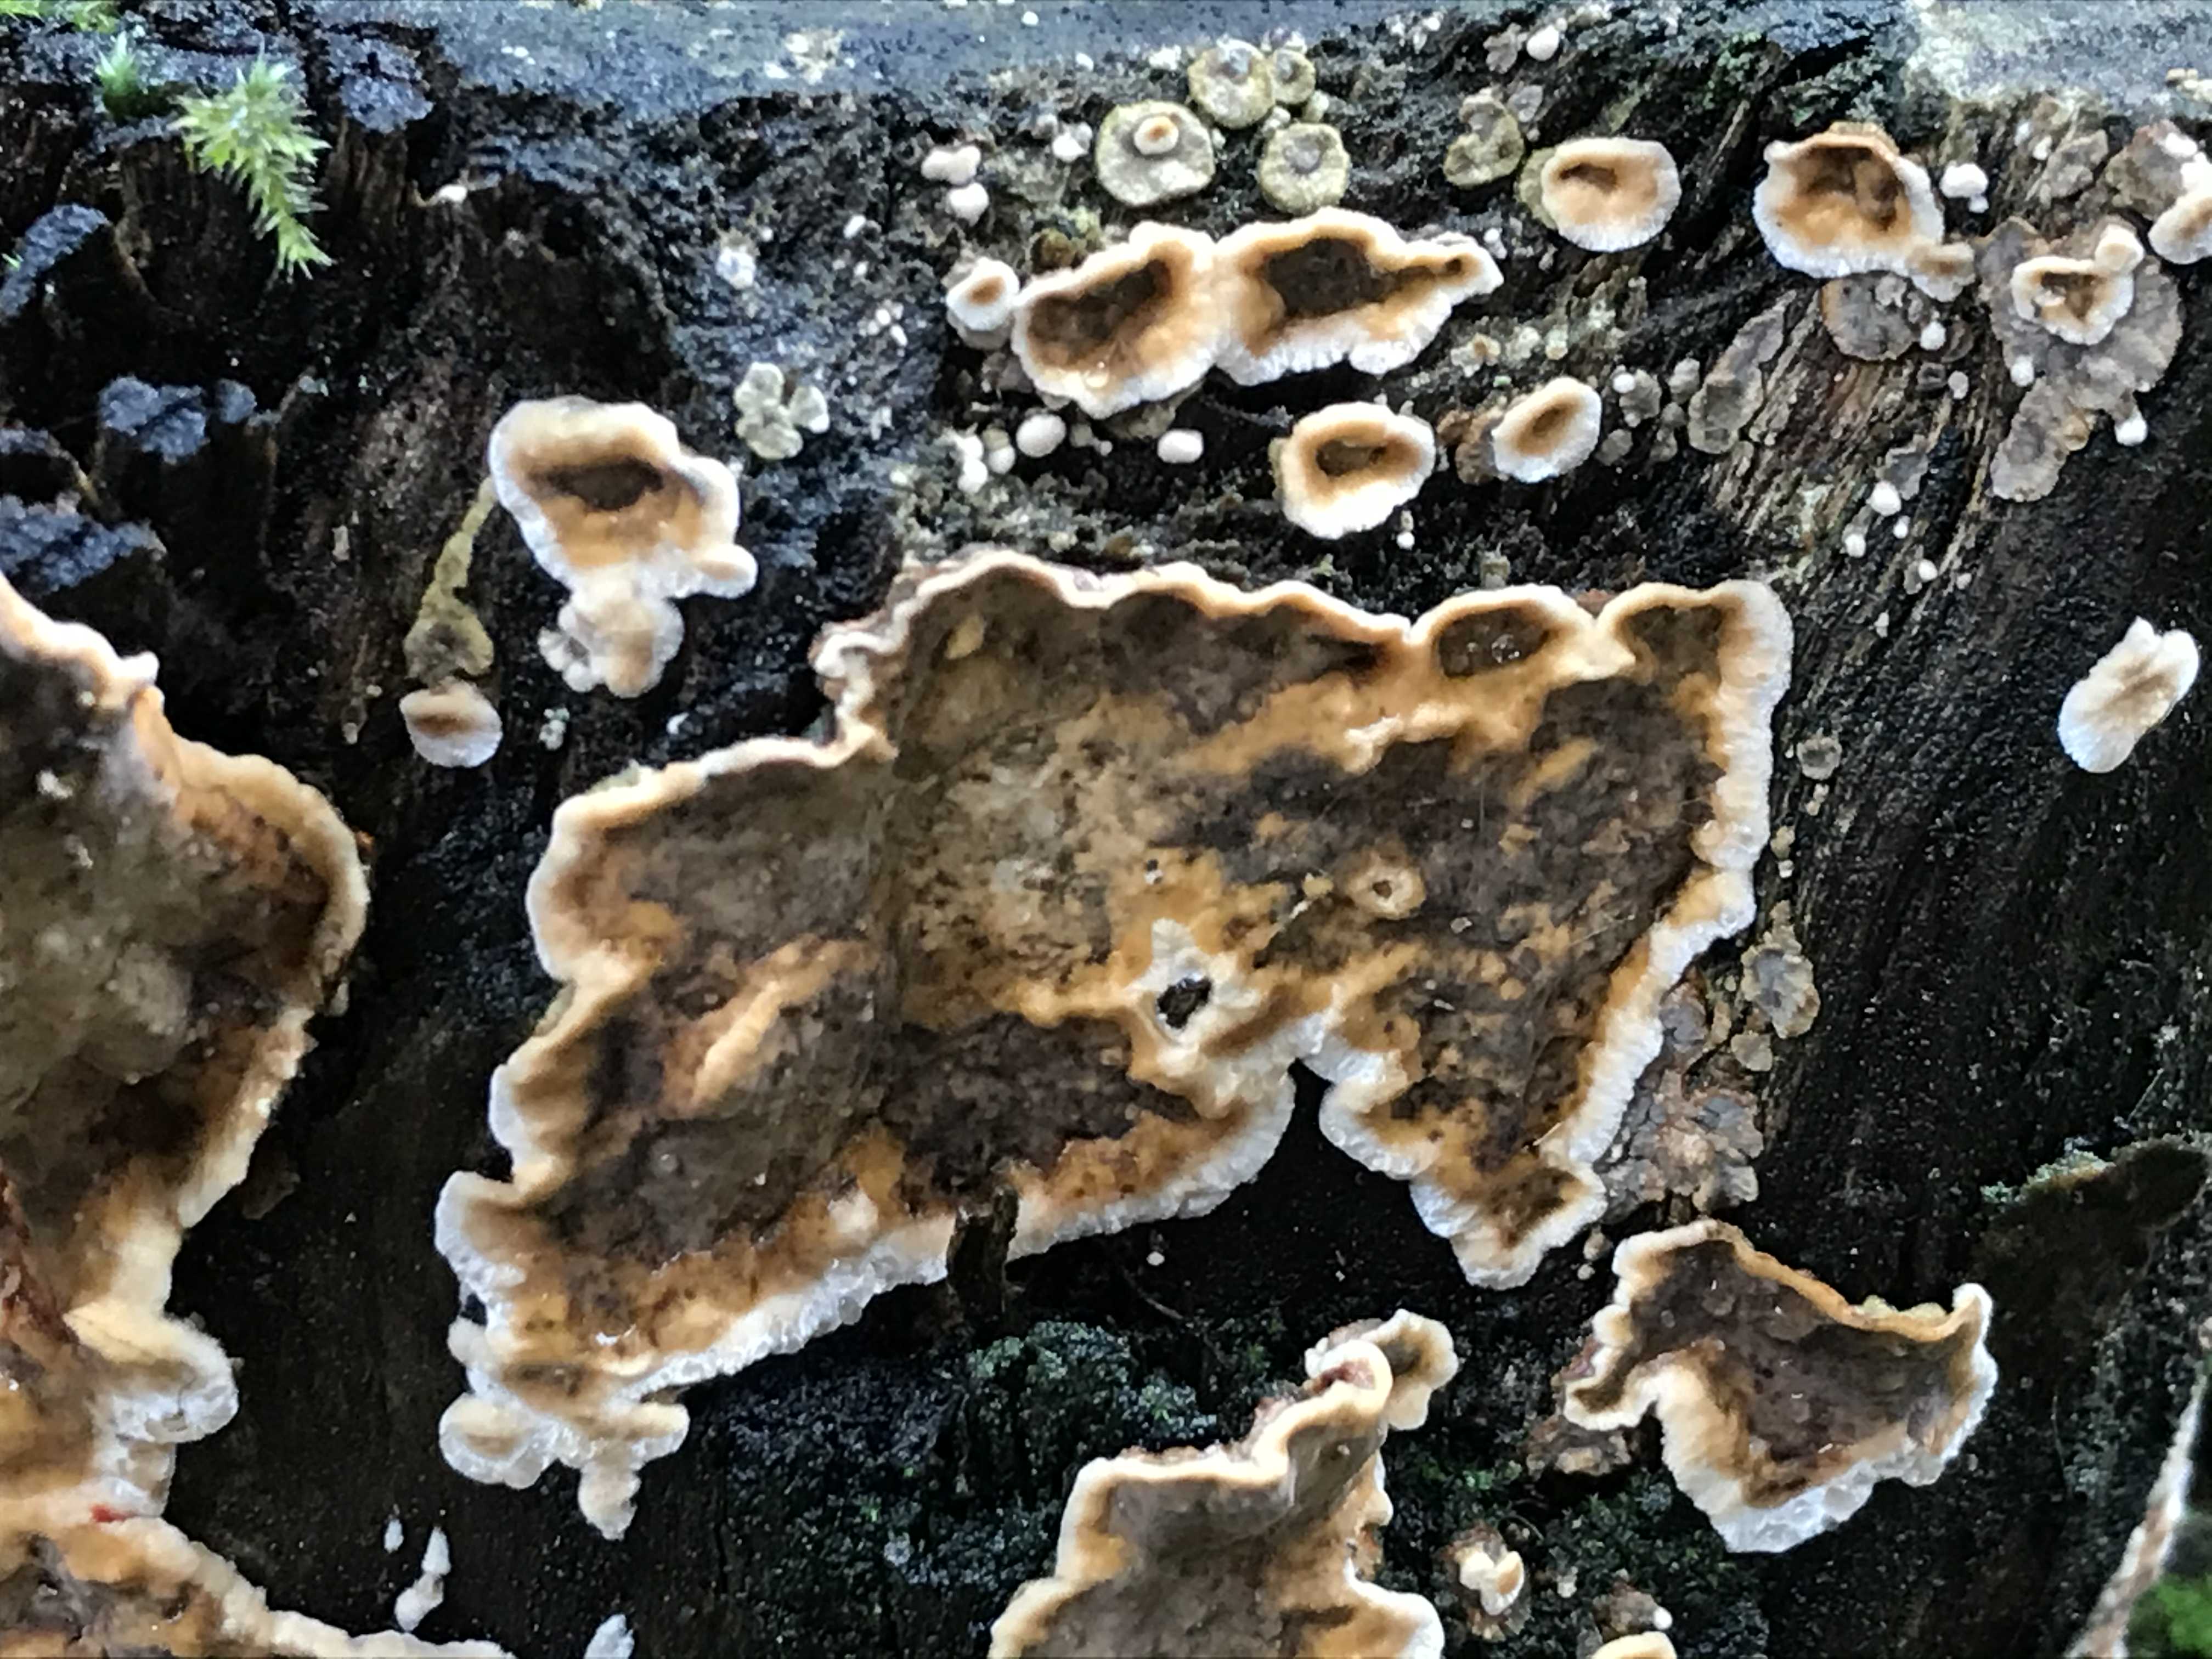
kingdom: Fungi
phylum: Basidiomycota
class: Agaricomycetes
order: Russulales
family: Stereaceae
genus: Stereum
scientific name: Stereum rugosum
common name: rynket lædersvamp
